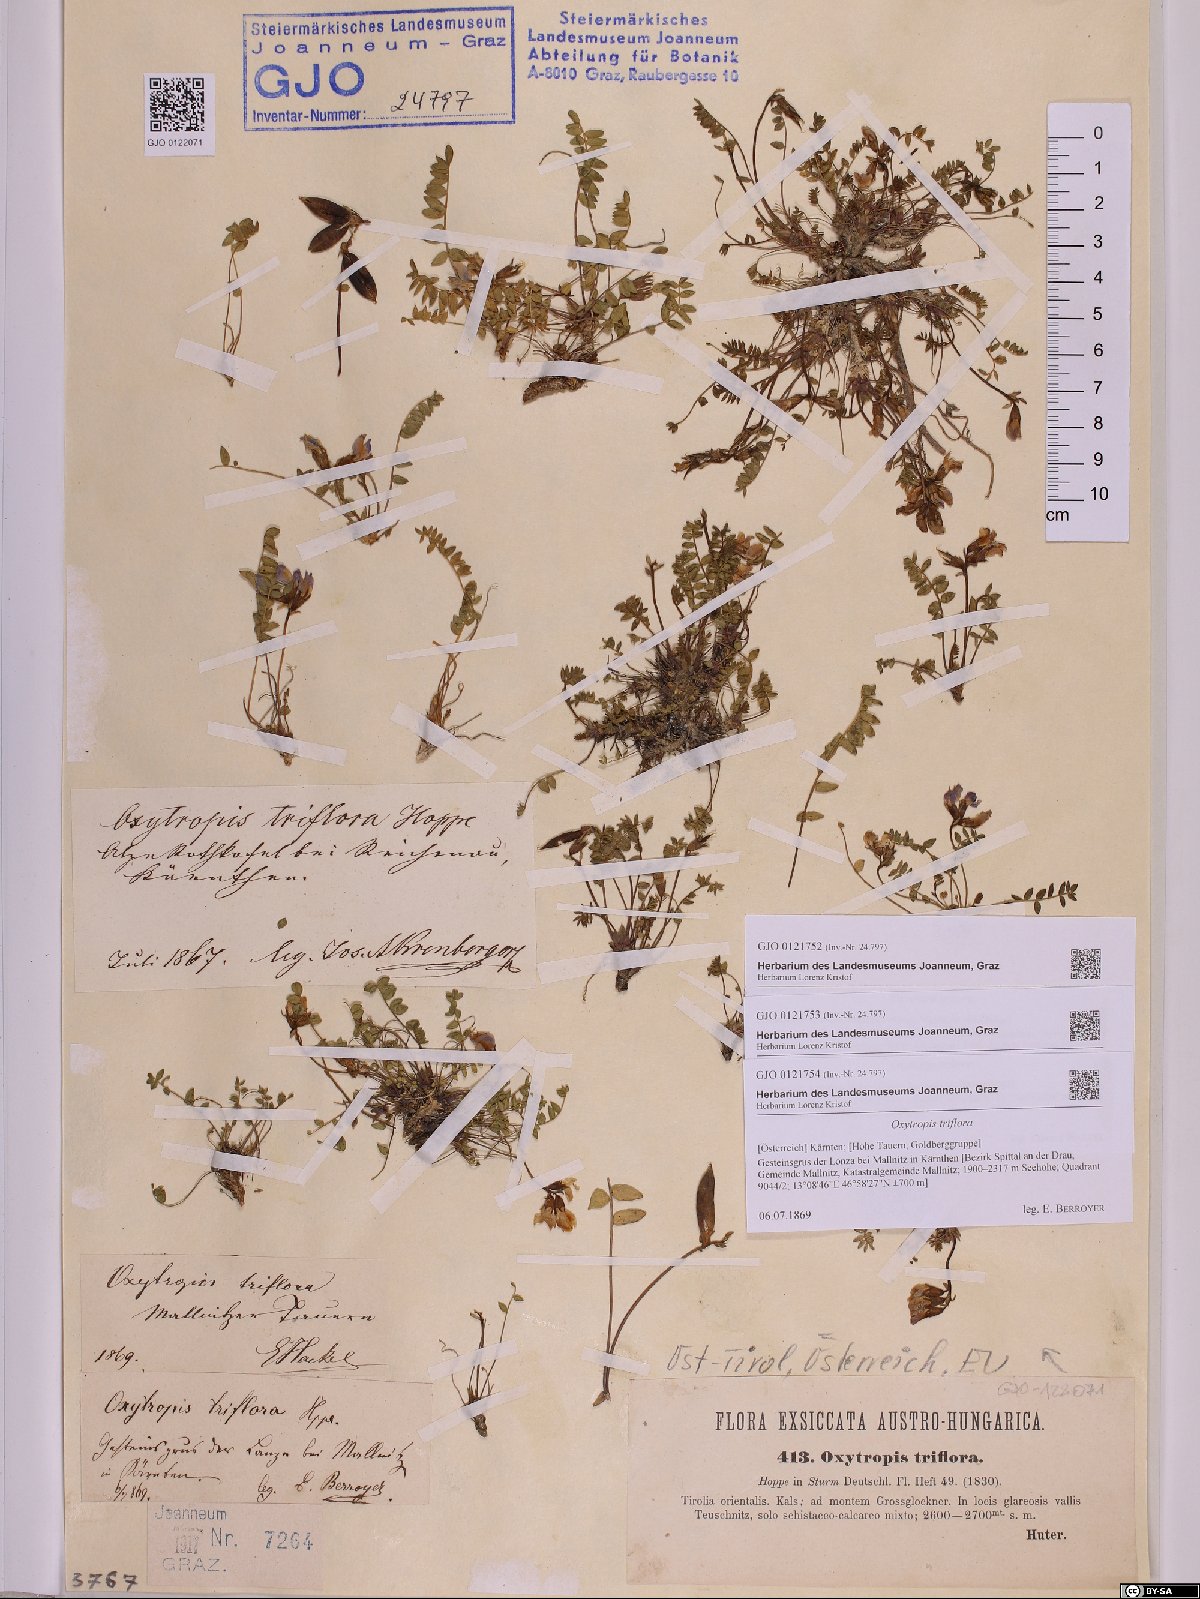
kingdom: Plantae
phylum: Tracheophyta
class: Magnoliopsida
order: Fabales
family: Fabaceae
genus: Oxytropis
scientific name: Oxytropis triflora
